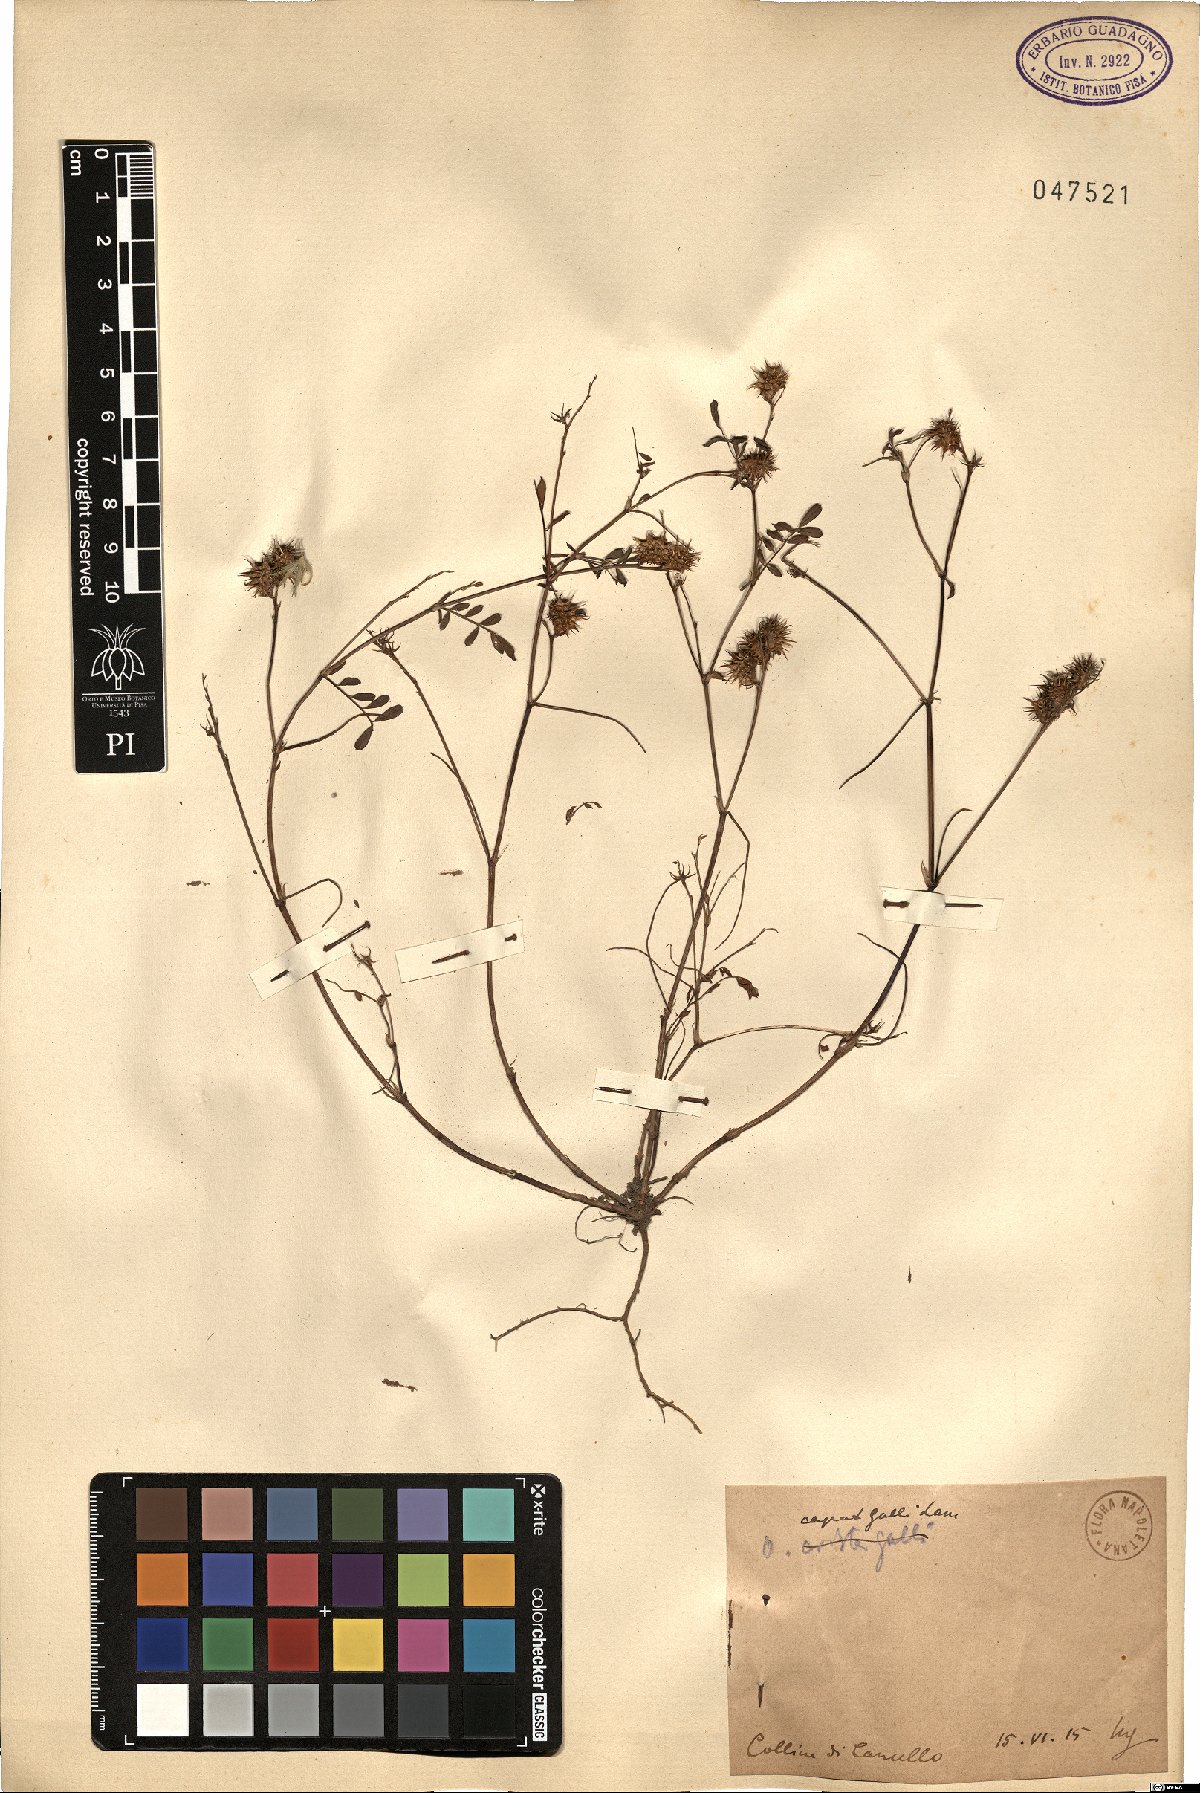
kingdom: Plantae
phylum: Tracheophyta
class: Magnoliopsida
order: Fabales
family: Fabaceae
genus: Onobrychis
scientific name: Onobrychis caput-galli
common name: Cockscomb sainfoin
